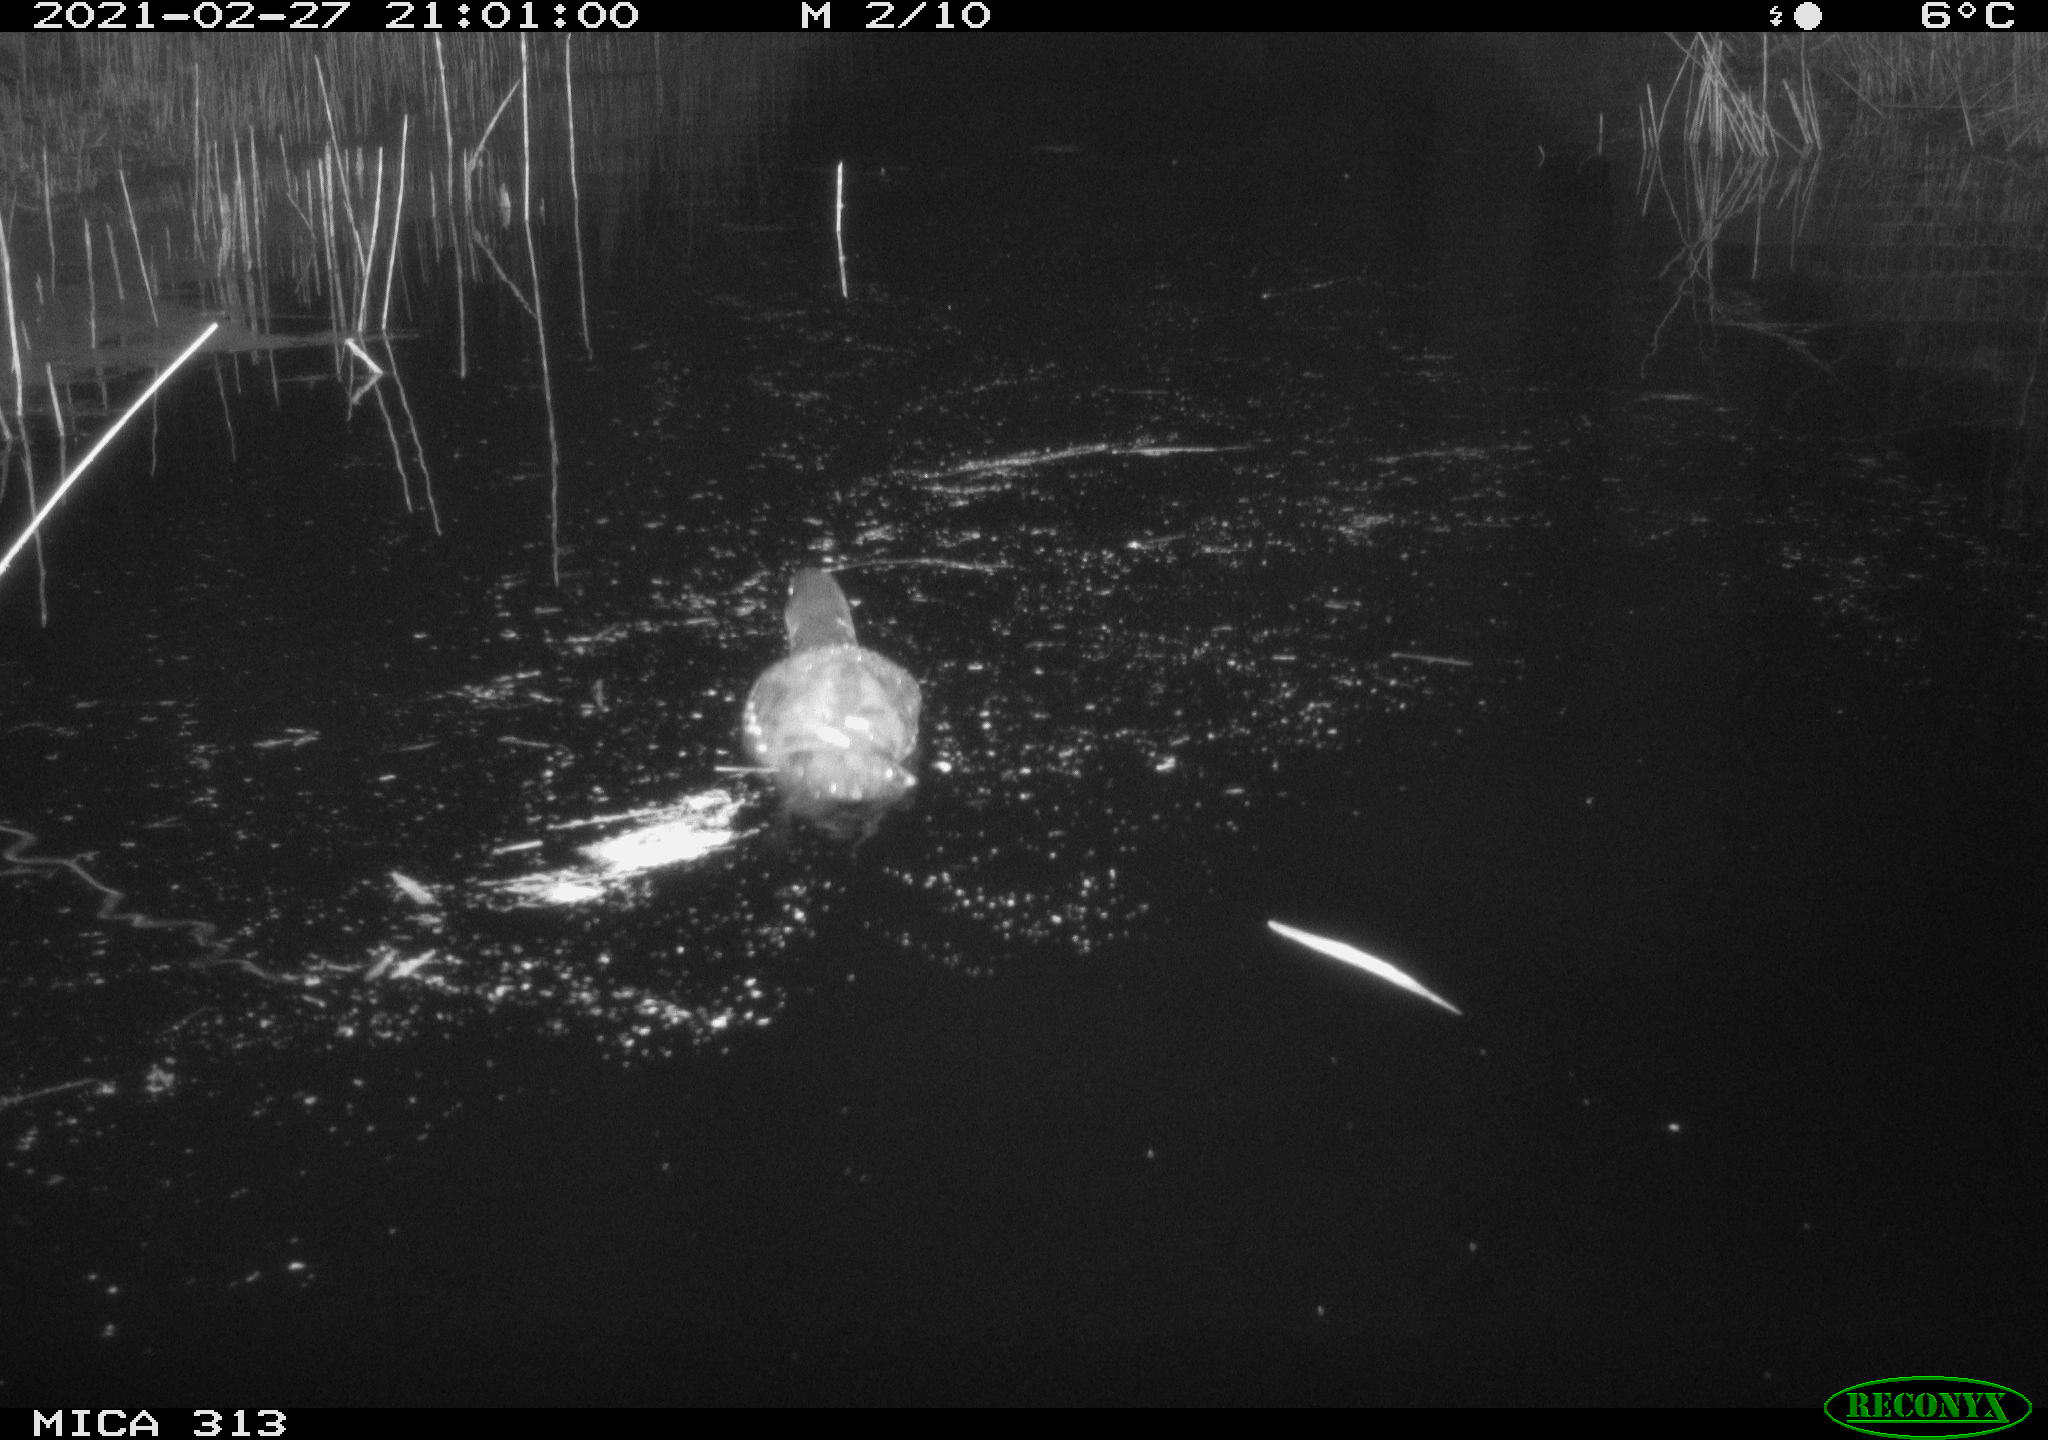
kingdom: Animalia
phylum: Chordata
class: Aves
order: Anseriformes
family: Anatidae
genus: Anas
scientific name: Anas
